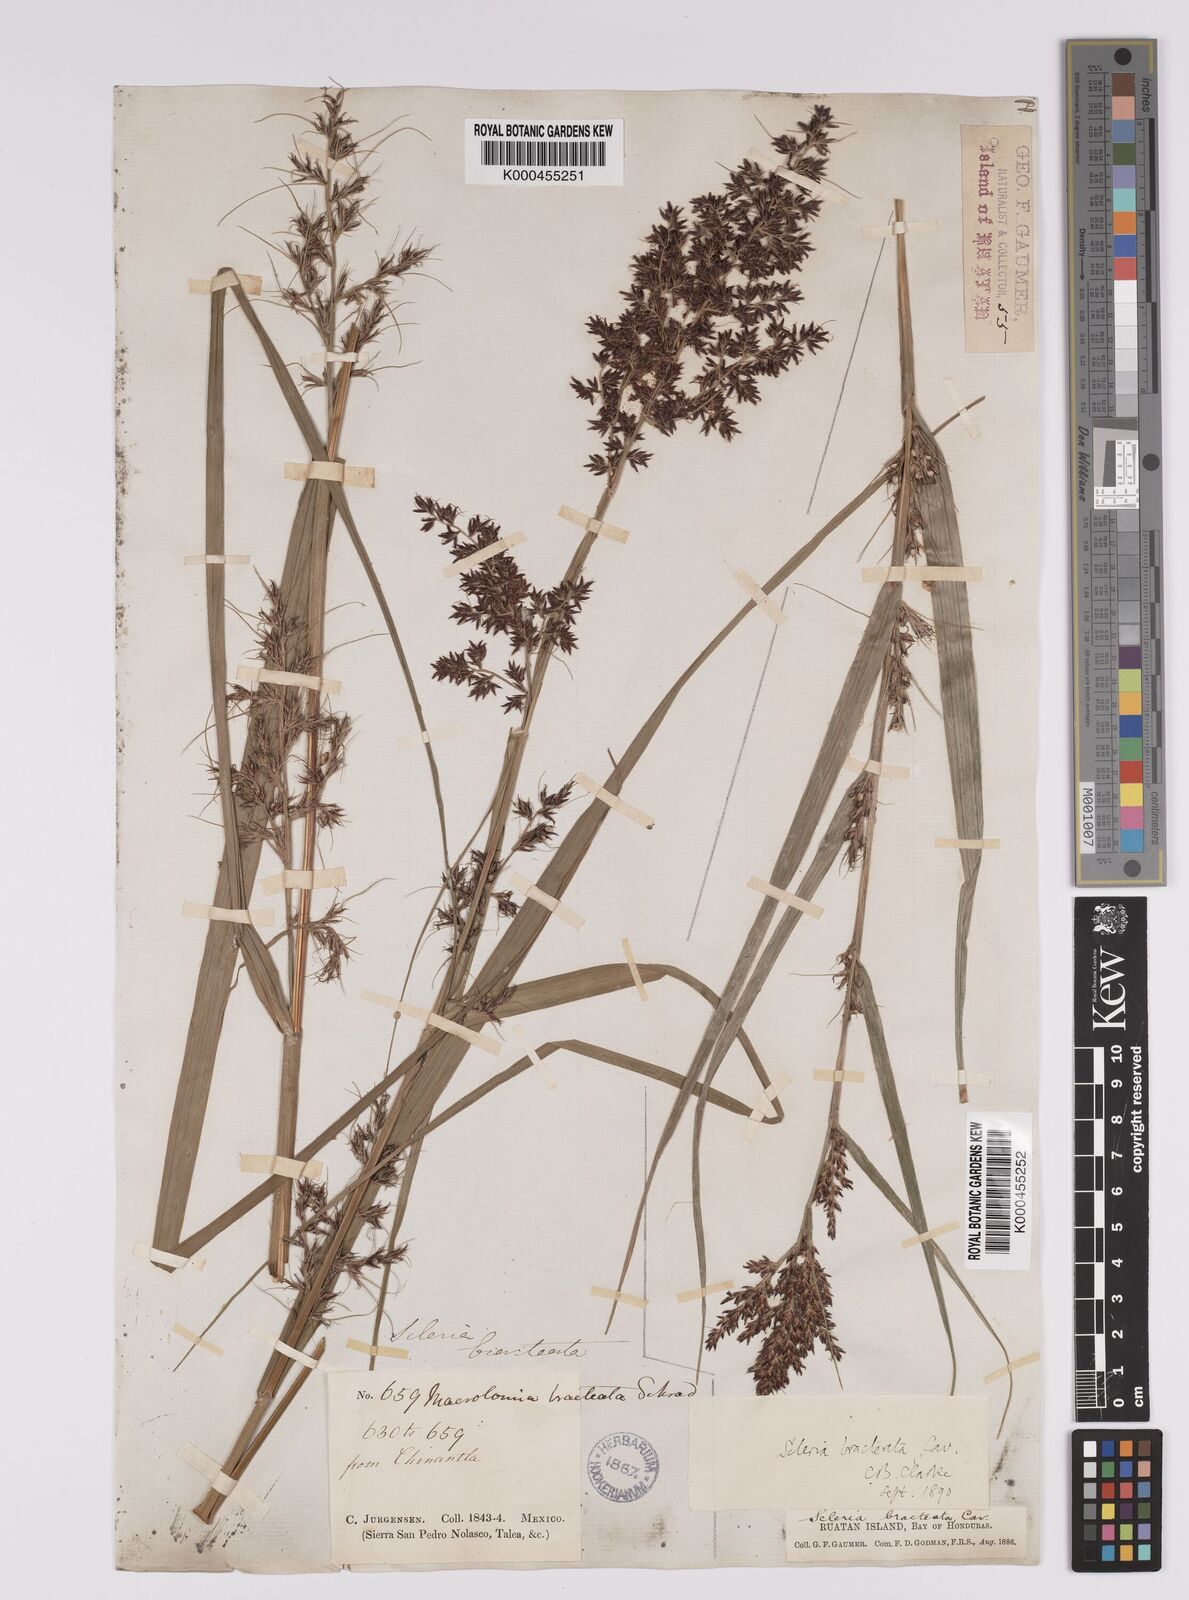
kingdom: Plantae
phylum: Tracheophyta
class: Liliopsida
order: Poales
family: Cyperaceae
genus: Scleria
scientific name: Scleria bracteata
